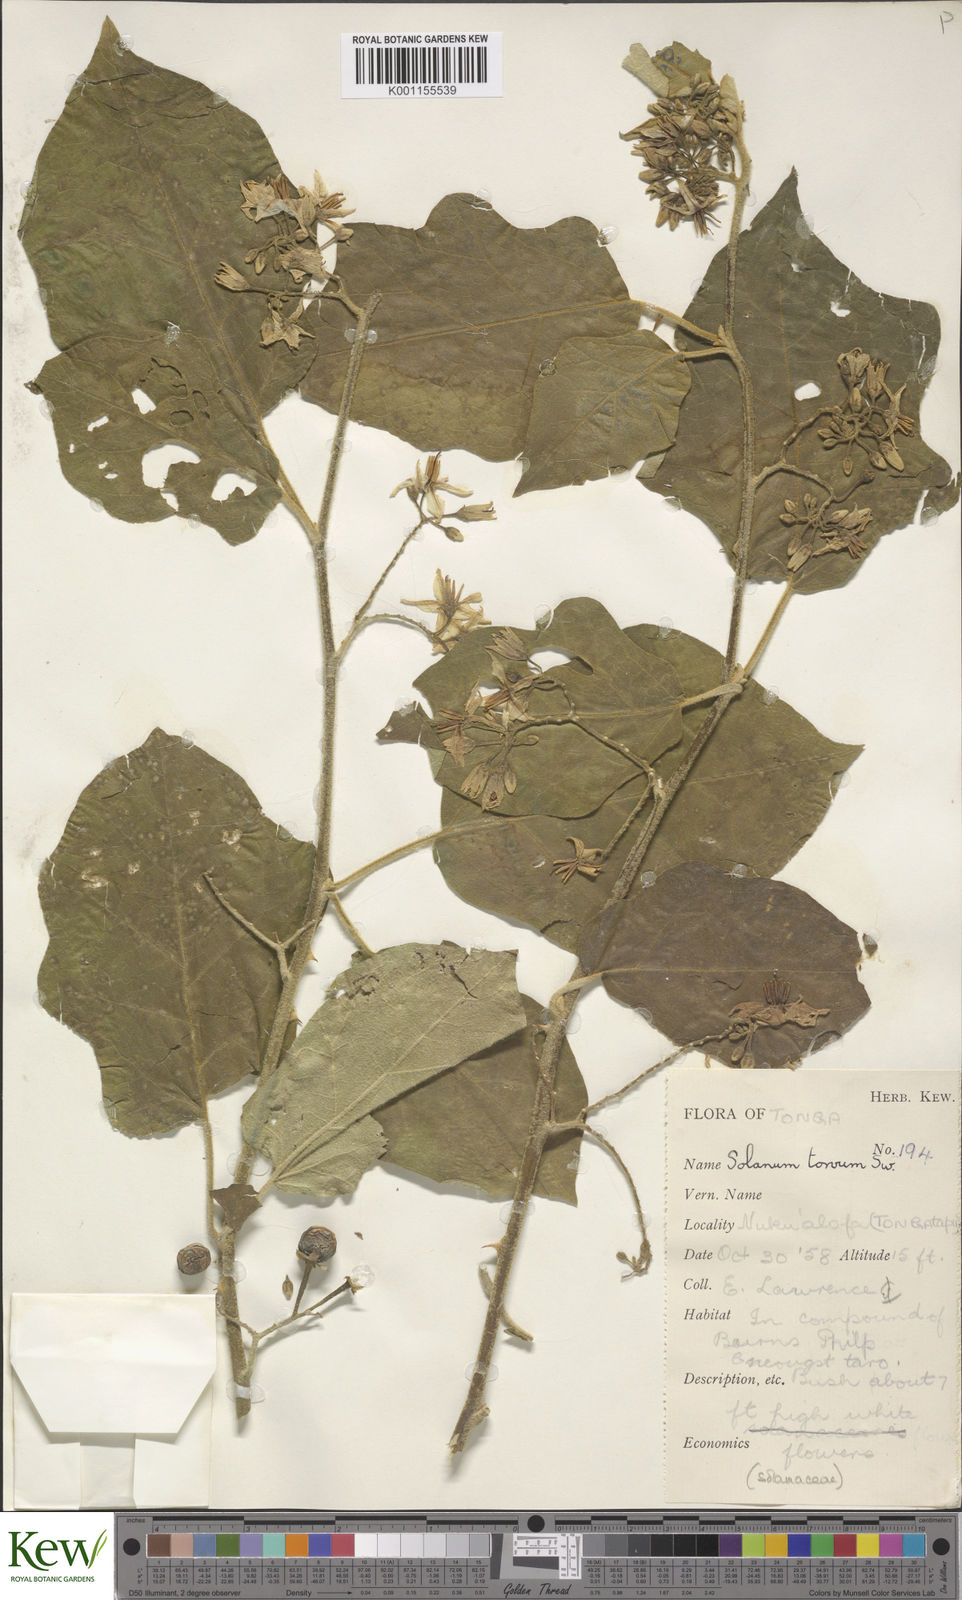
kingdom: Plantae
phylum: Tracheophyta
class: Magnoliopsida
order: Solanales
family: Solanaceae
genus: Solanum
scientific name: Solanum torvum
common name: Turkey berry
